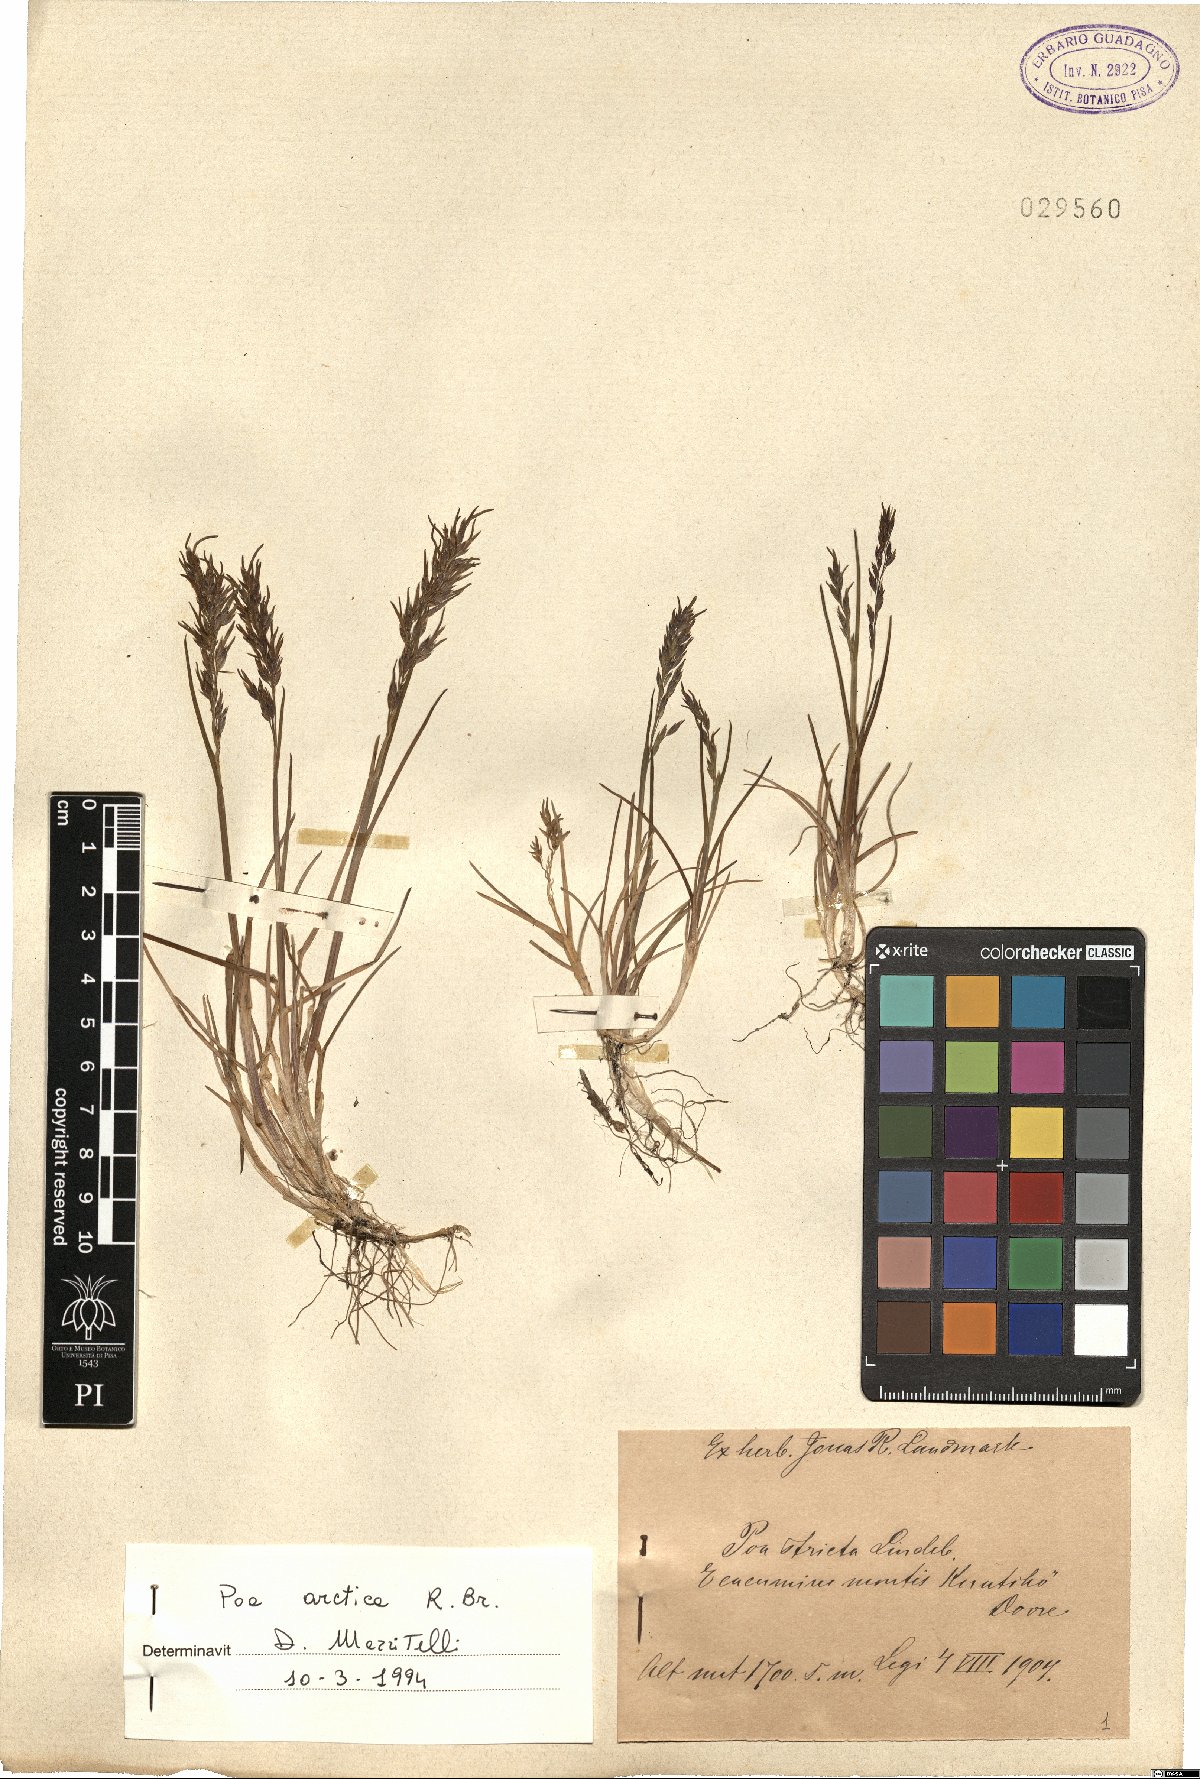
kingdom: Plantae
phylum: Tracheophyta
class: Liliopsida
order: Poales
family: Poaceae
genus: Poa
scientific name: Poa arctica
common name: Arctic bluegrass
